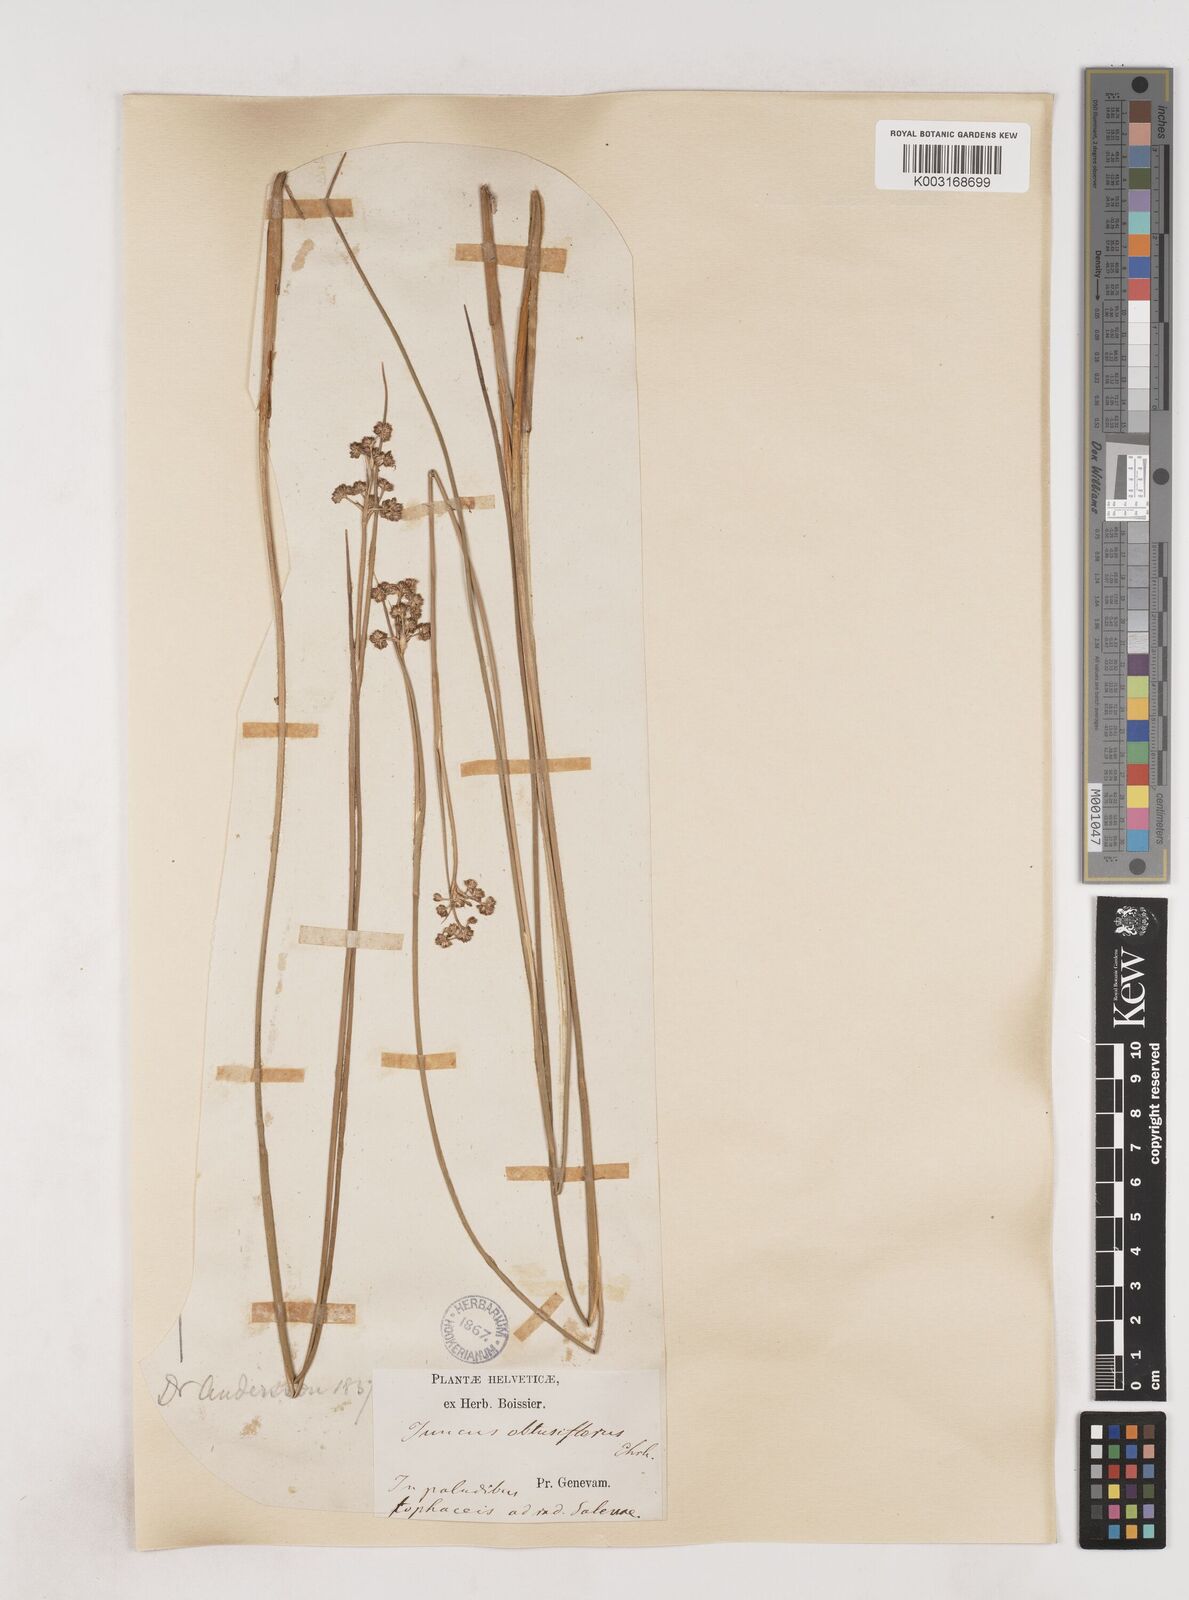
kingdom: Plantae
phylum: Tracheophyta
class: Liliopsida
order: Poales
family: Juncaceae
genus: Juncus
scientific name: Juncus subnodulosus
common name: Blunt-flowered rush
